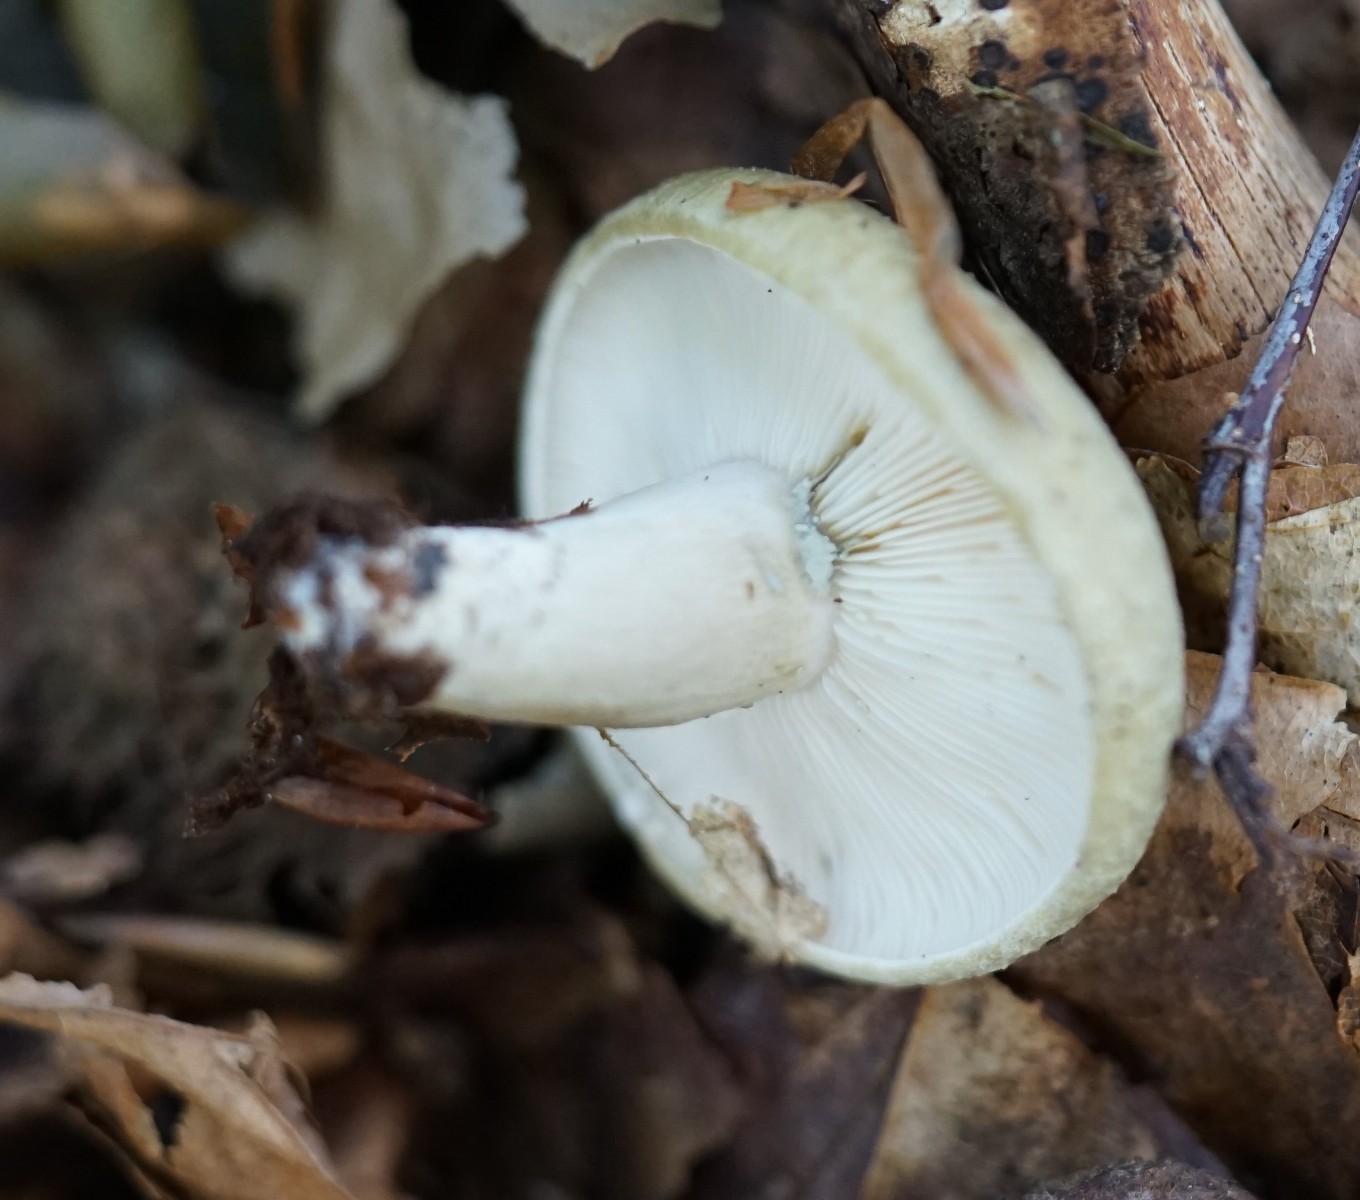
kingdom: Fungi
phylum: Basidiomycota
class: Agaricomycetes
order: Russulales
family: Russulaceae
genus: Lactarius
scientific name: Lactarius blennius
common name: dråbeplettet mælkehat
